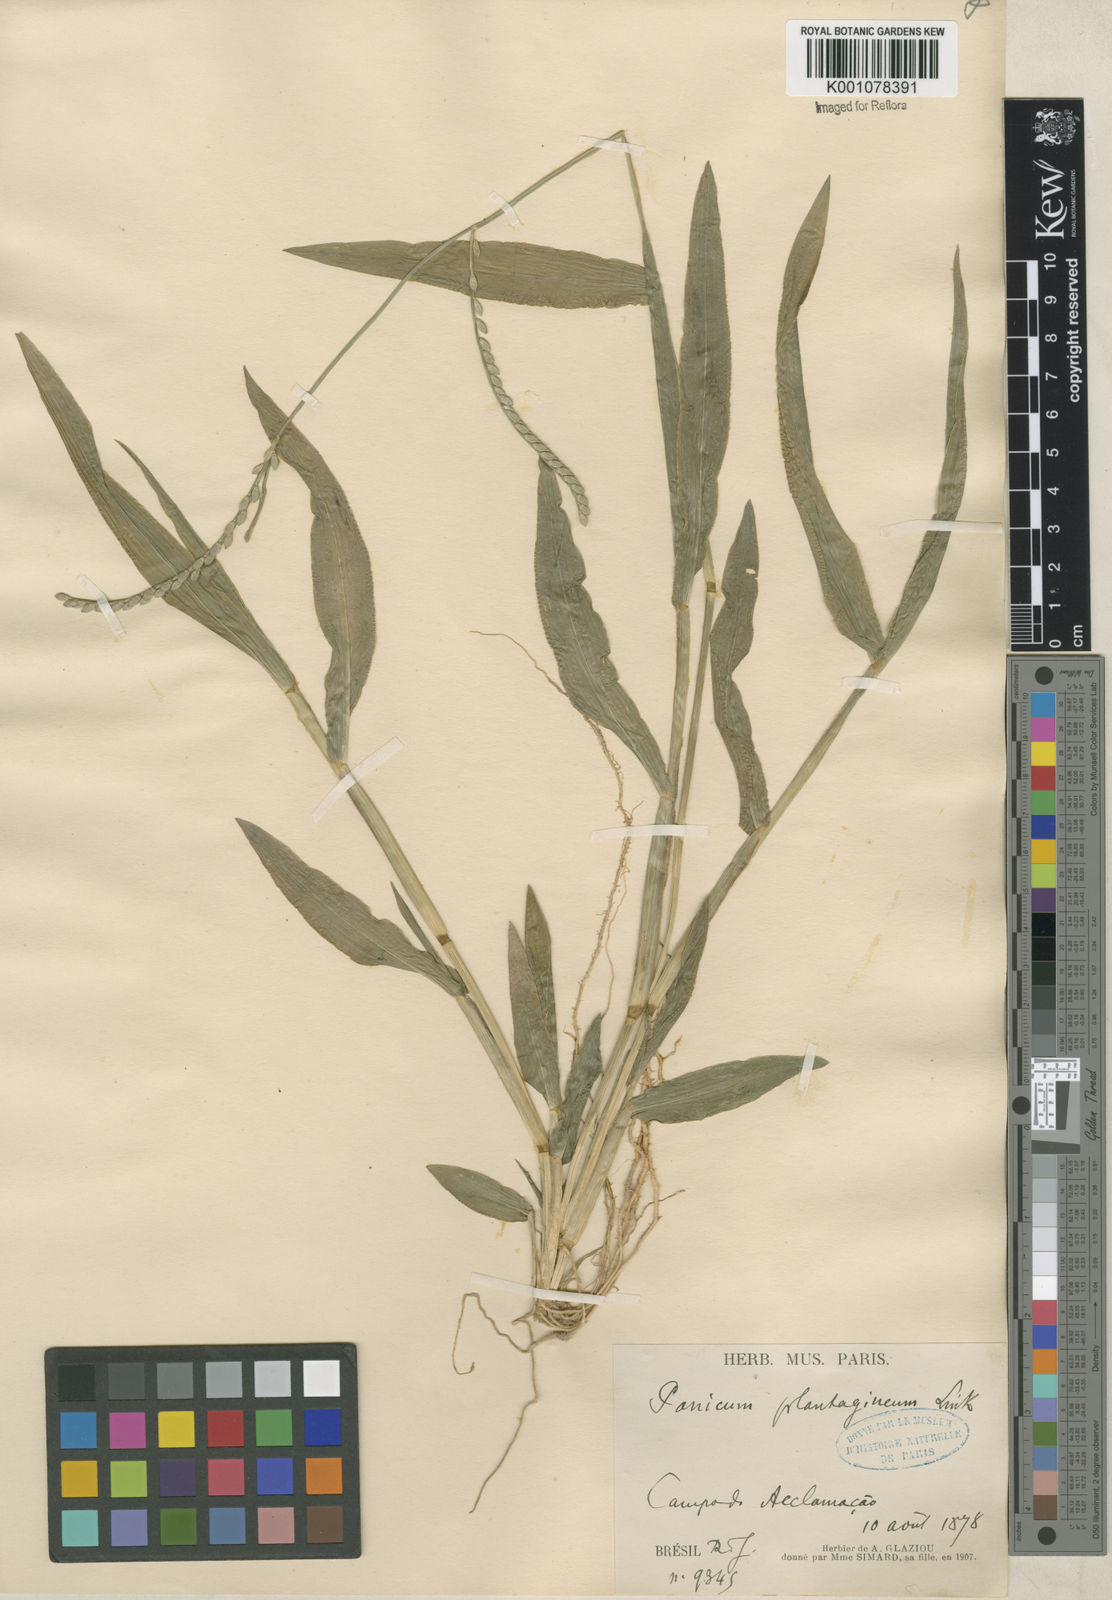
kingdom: Plantae
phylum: Tracheophyta
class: Liliopsida
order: Poales
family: Poaceae
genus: Urochloa
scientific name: Urochloa plantaginea
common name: Plantain signalgrass
